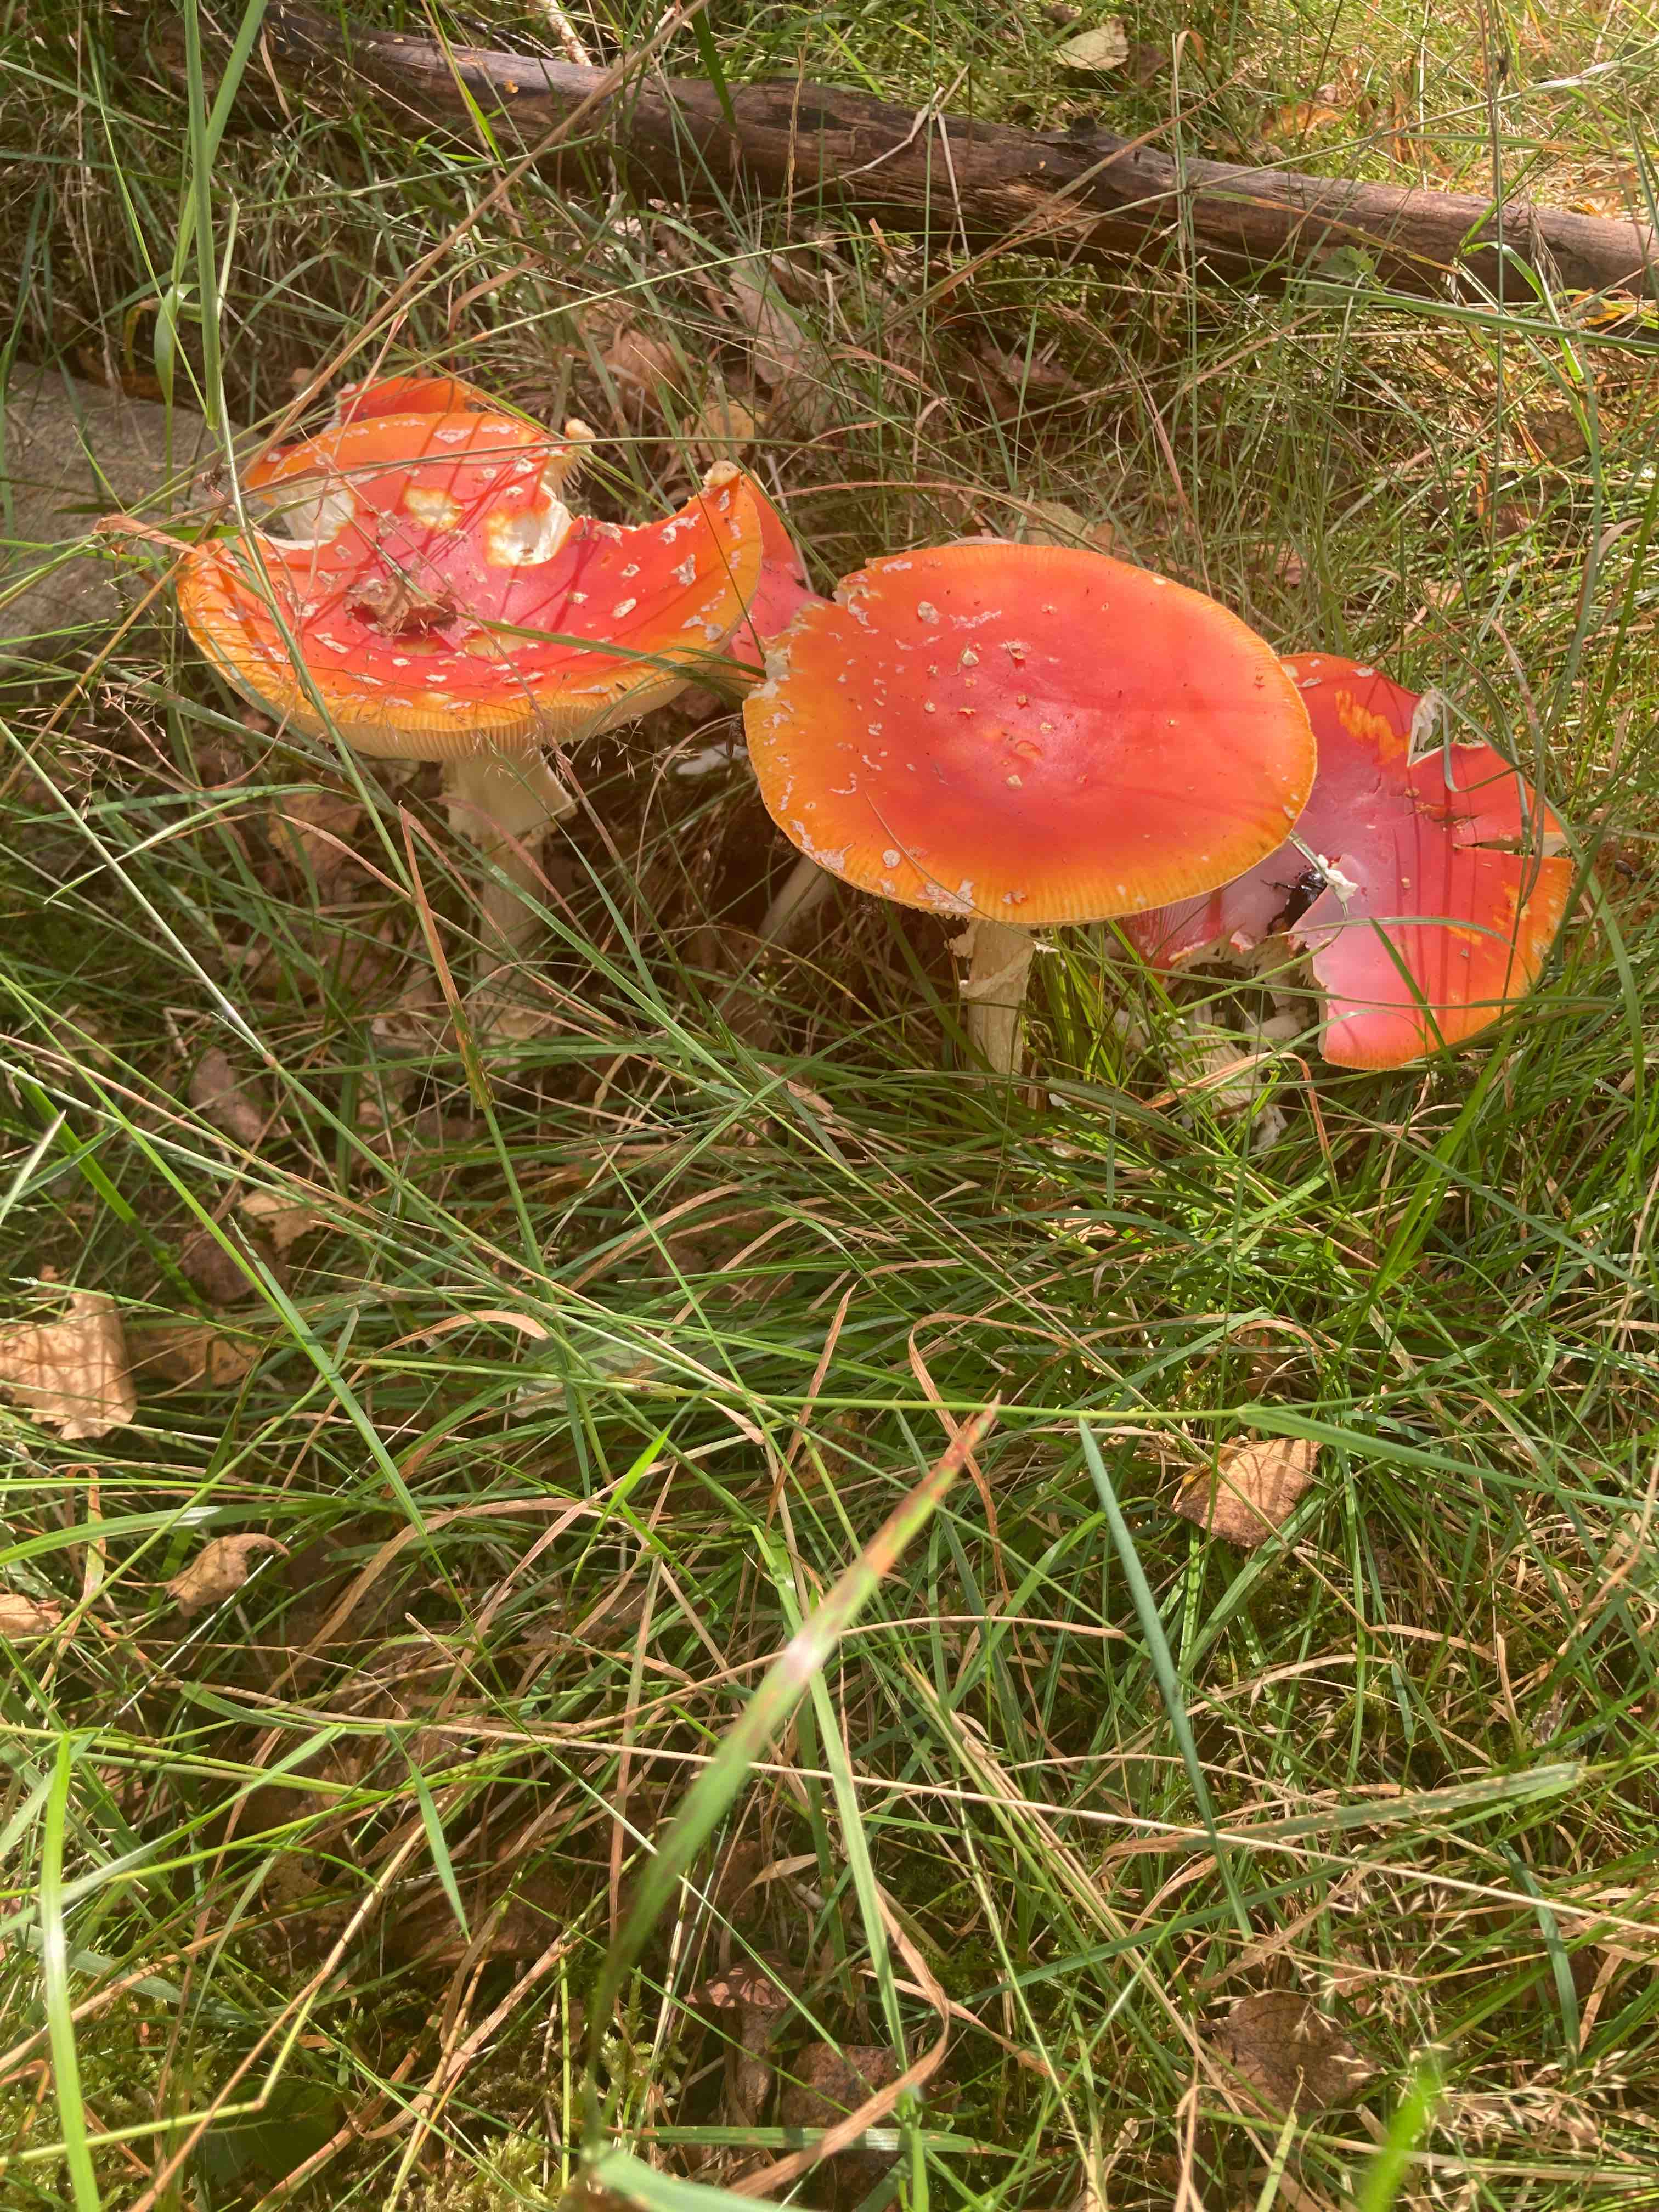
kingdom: Fungi
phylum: Basidiomycota
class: Agaricomycetes
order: Agaricales
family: Amanitaceae
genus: Amanita
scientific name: Amanita muscaria
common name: rød fluesvamp
